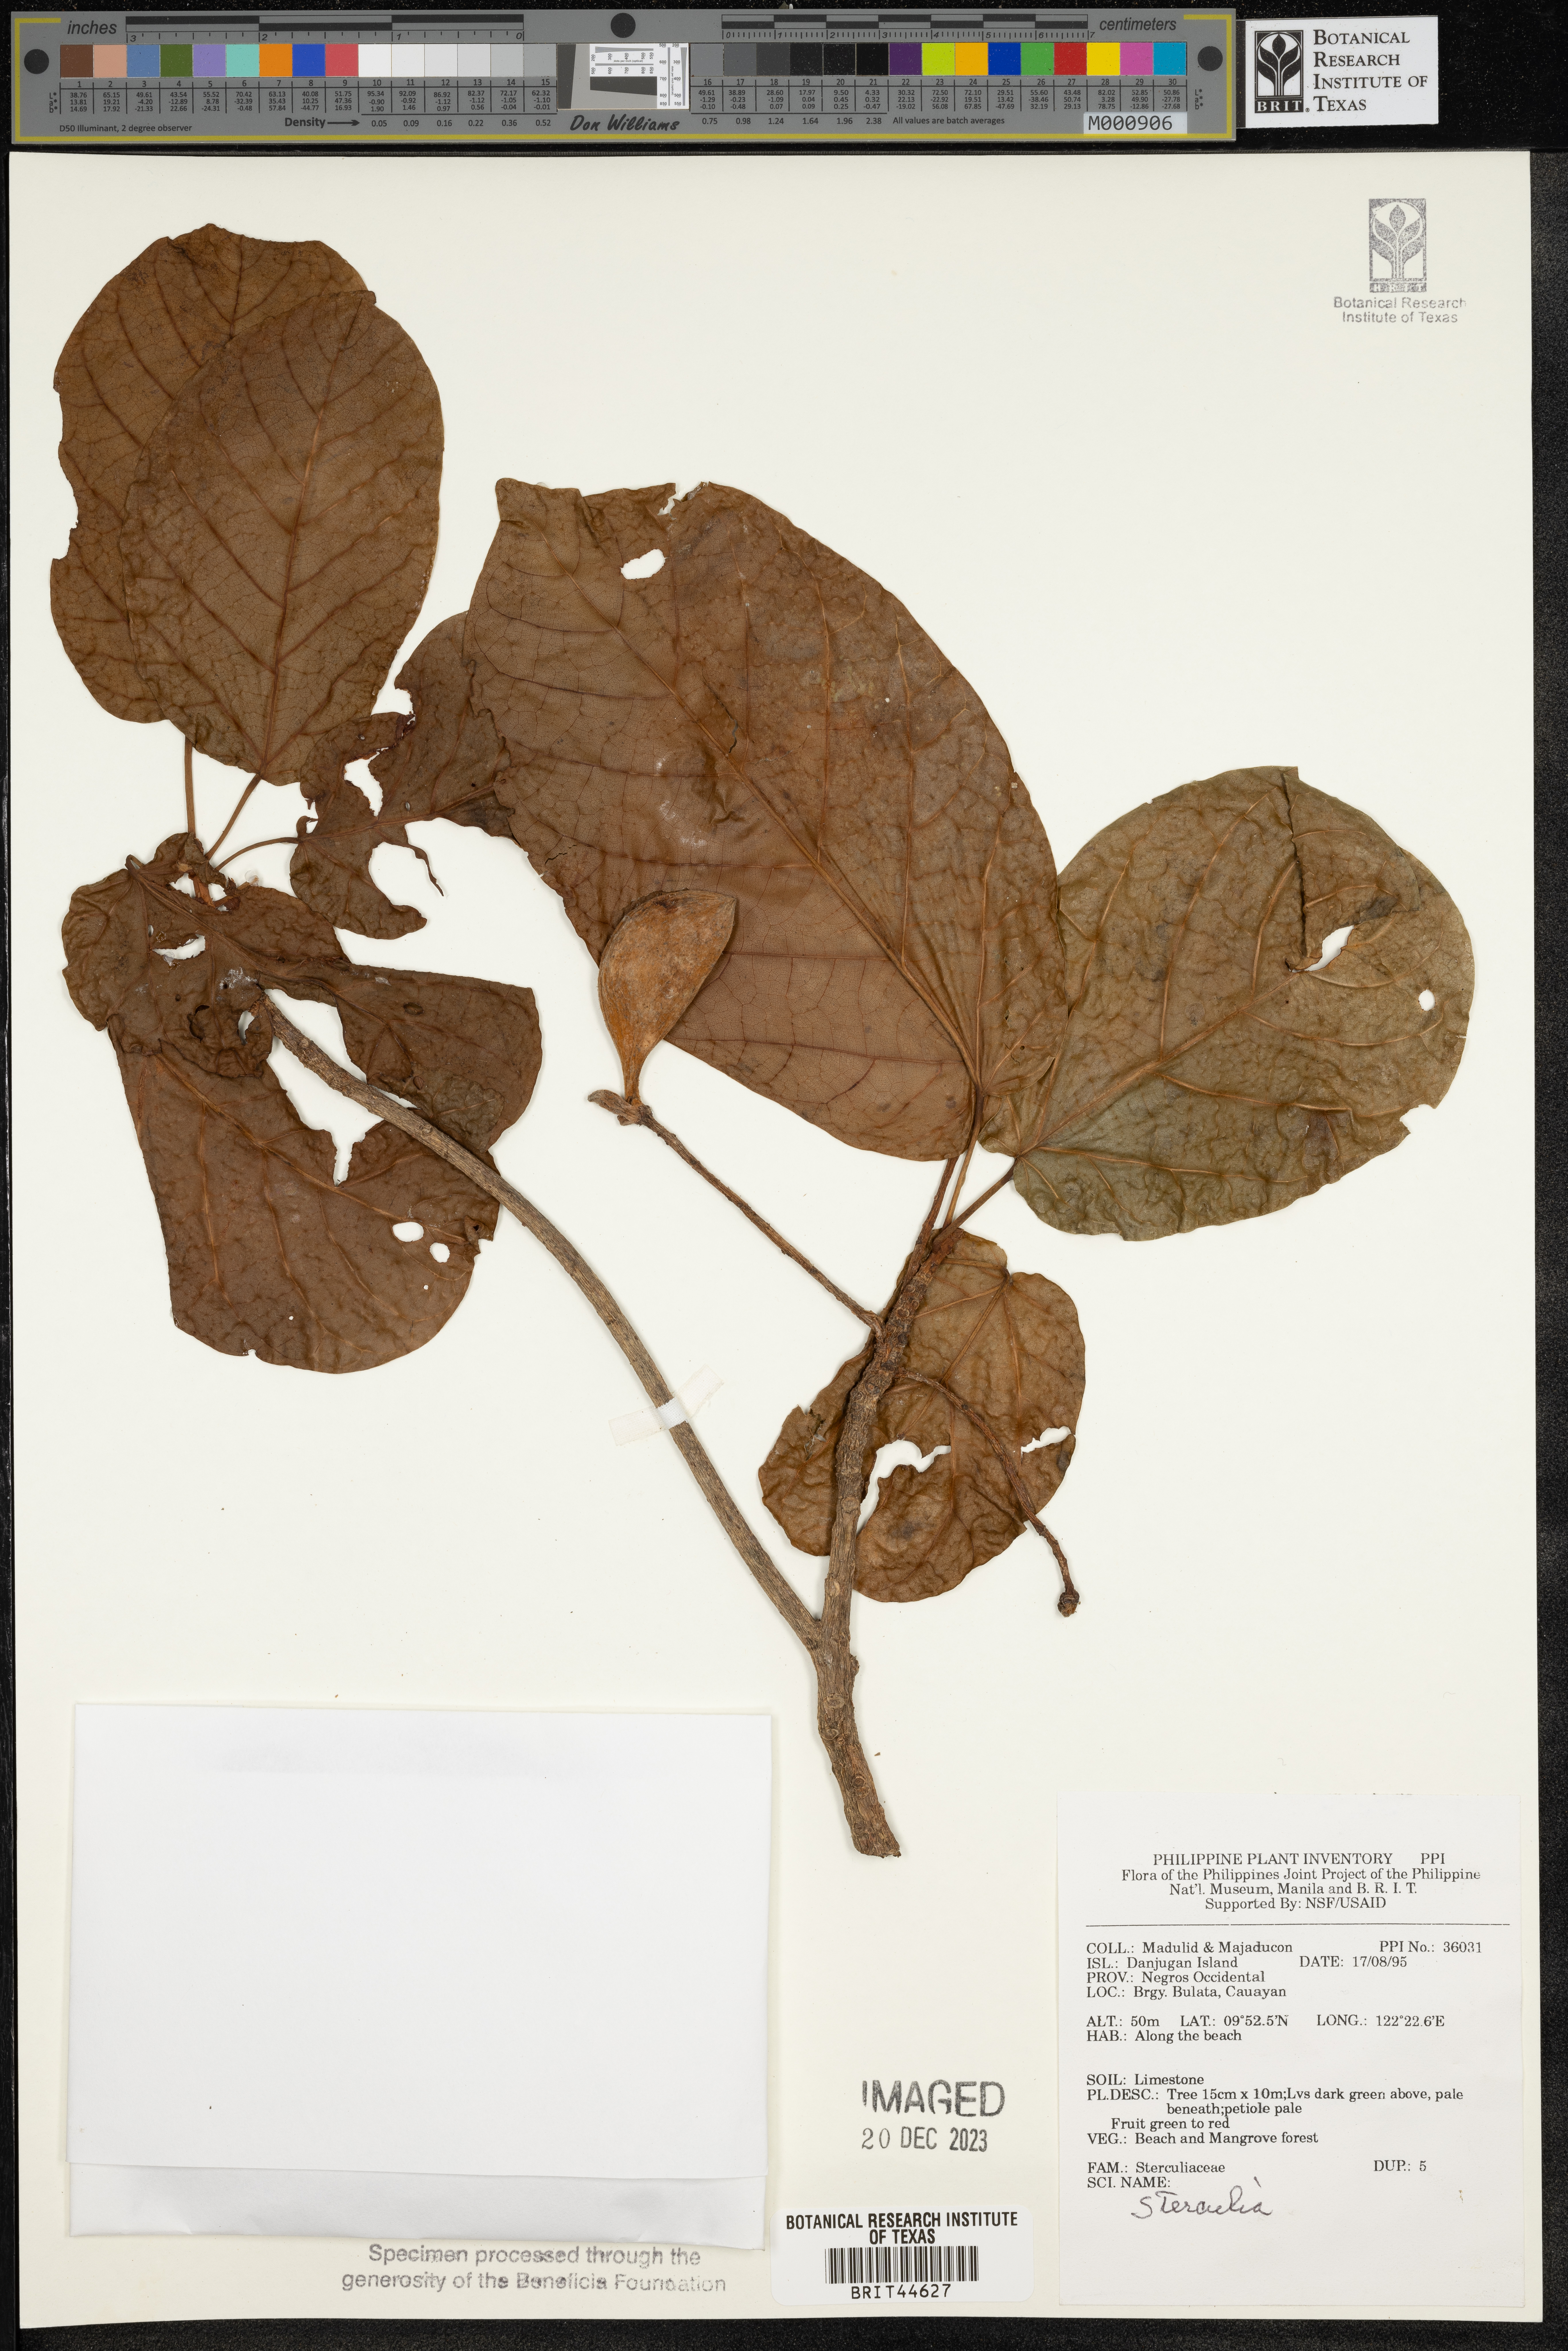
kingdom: Plantae
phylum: Tracheophyta
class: Magnoliopsida
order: Malvales
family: Malvaceae
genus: Sterculia
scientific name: Sterculia
